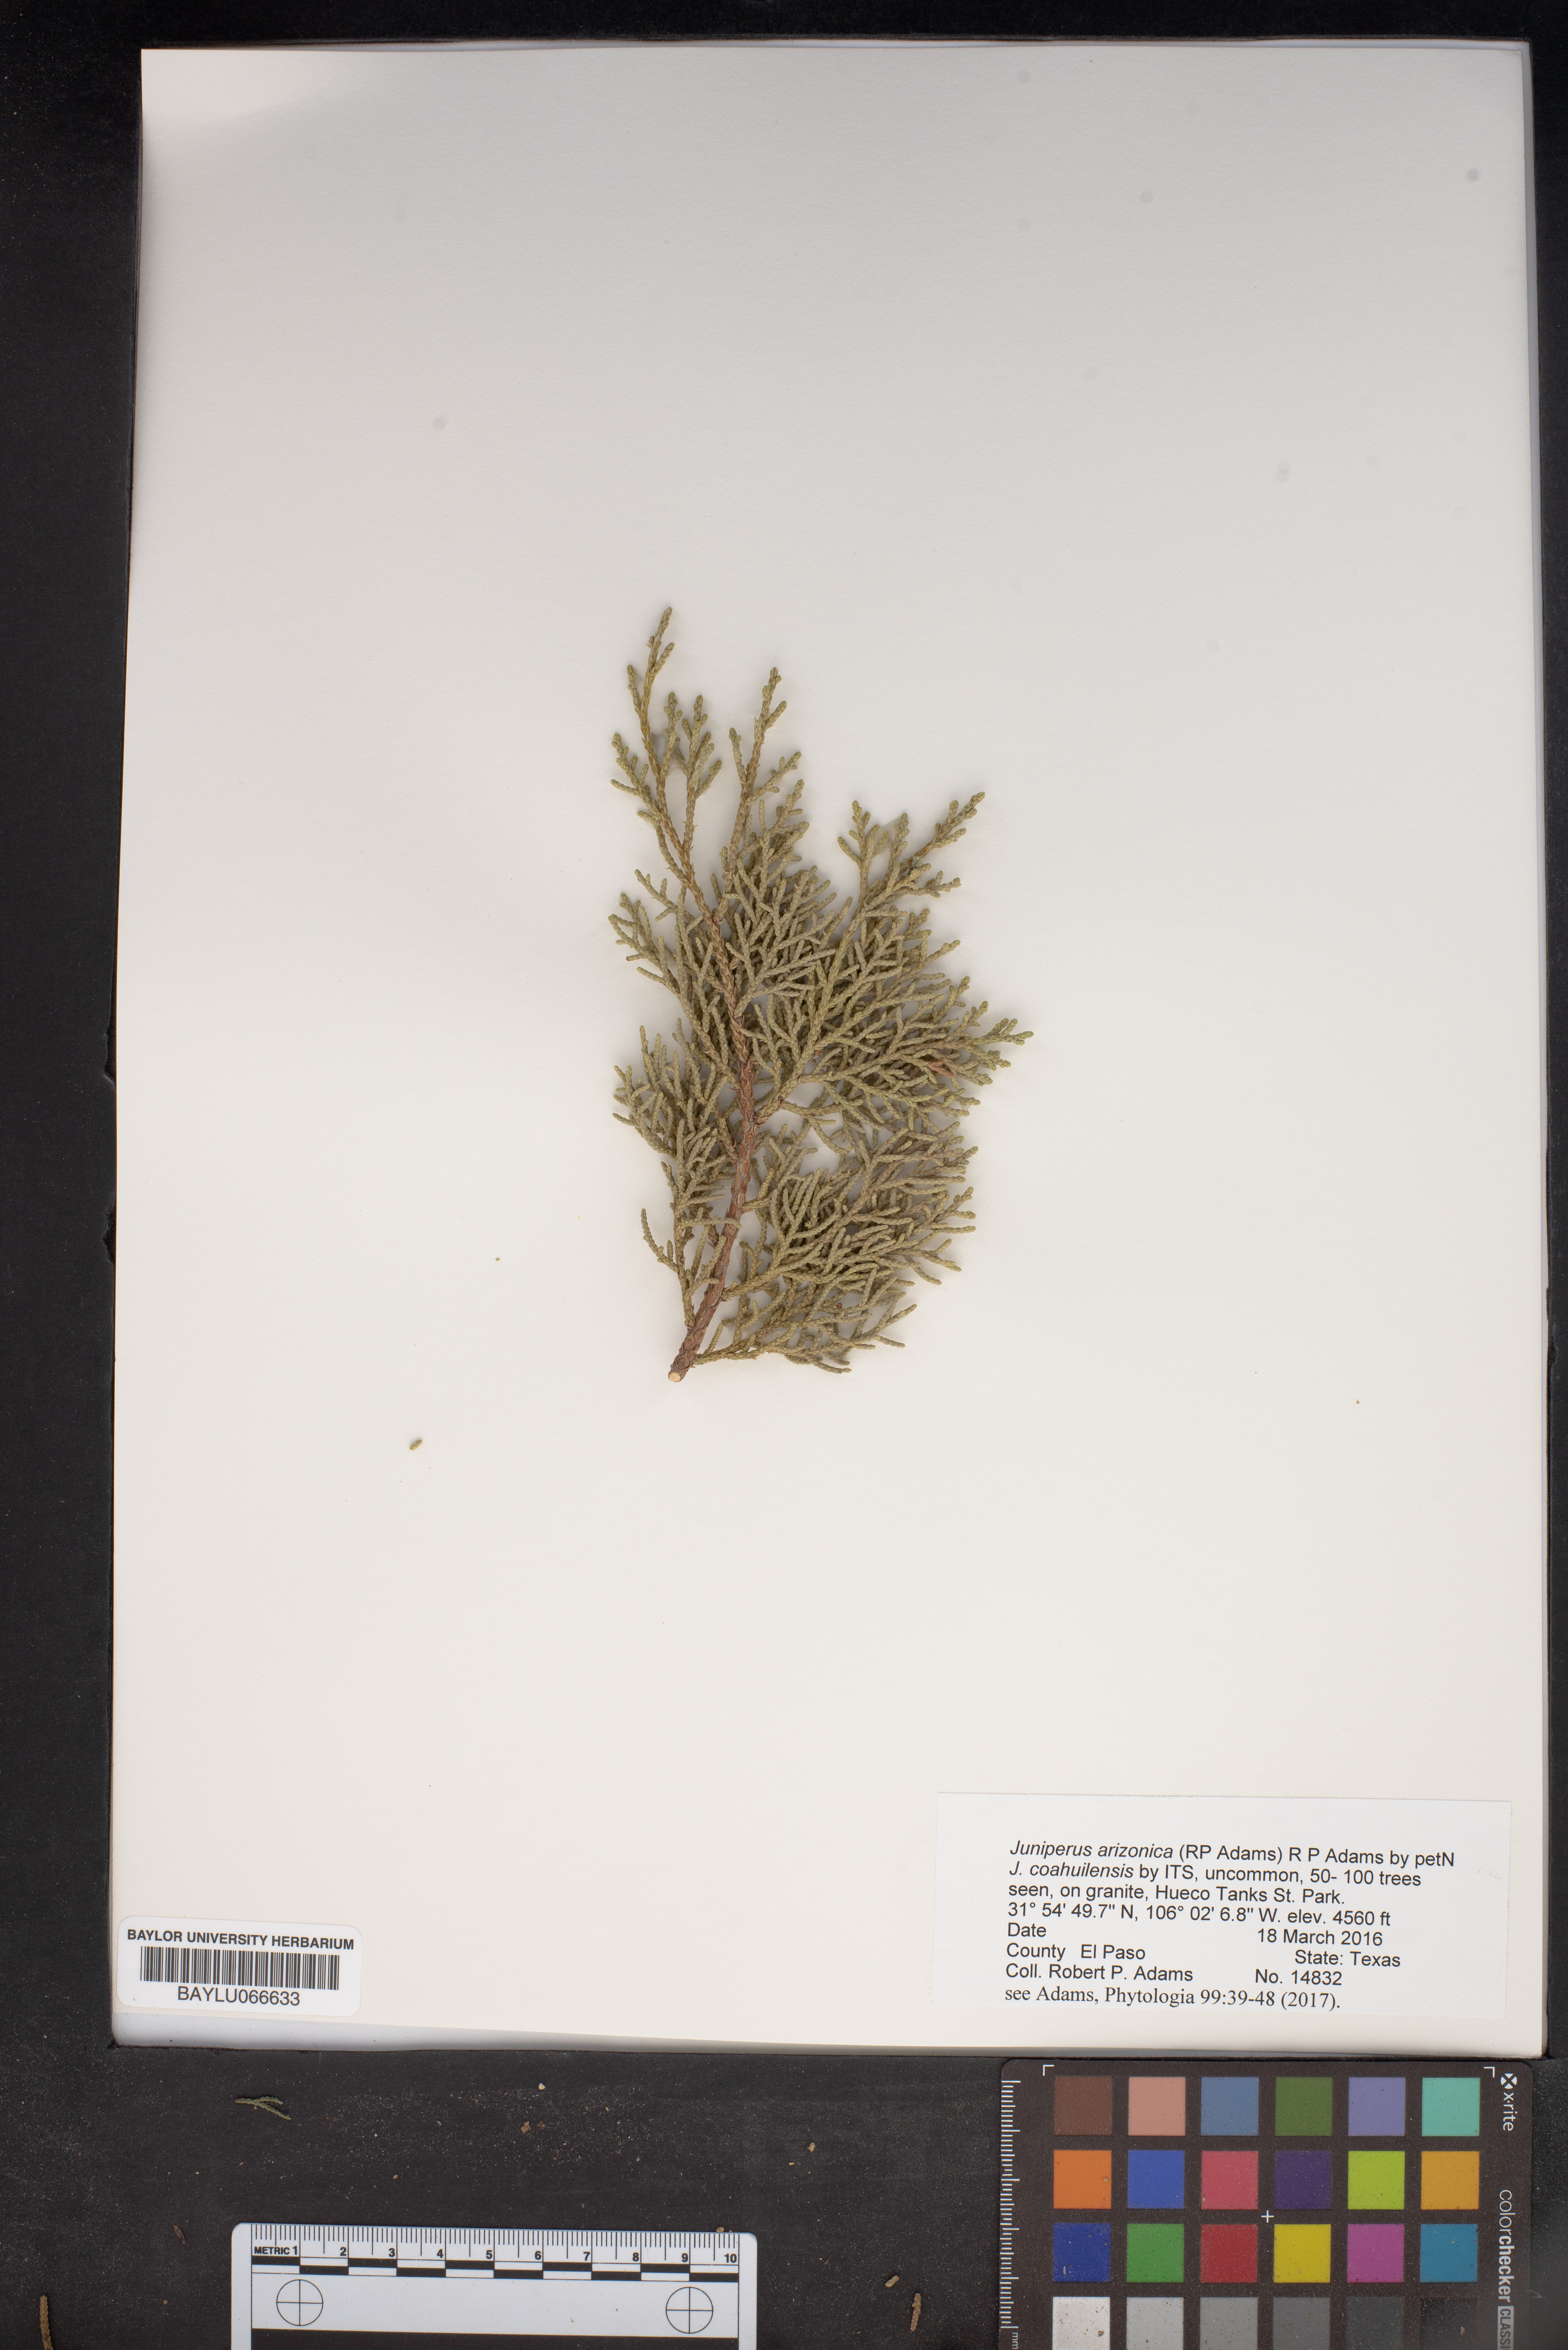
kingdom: Plantae
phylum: Tracheophyta
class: Pinopsida
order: Pinales
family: Cupressaceae
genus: Juniperus
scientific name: Juniperus arizonica
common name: Arizona juniper
